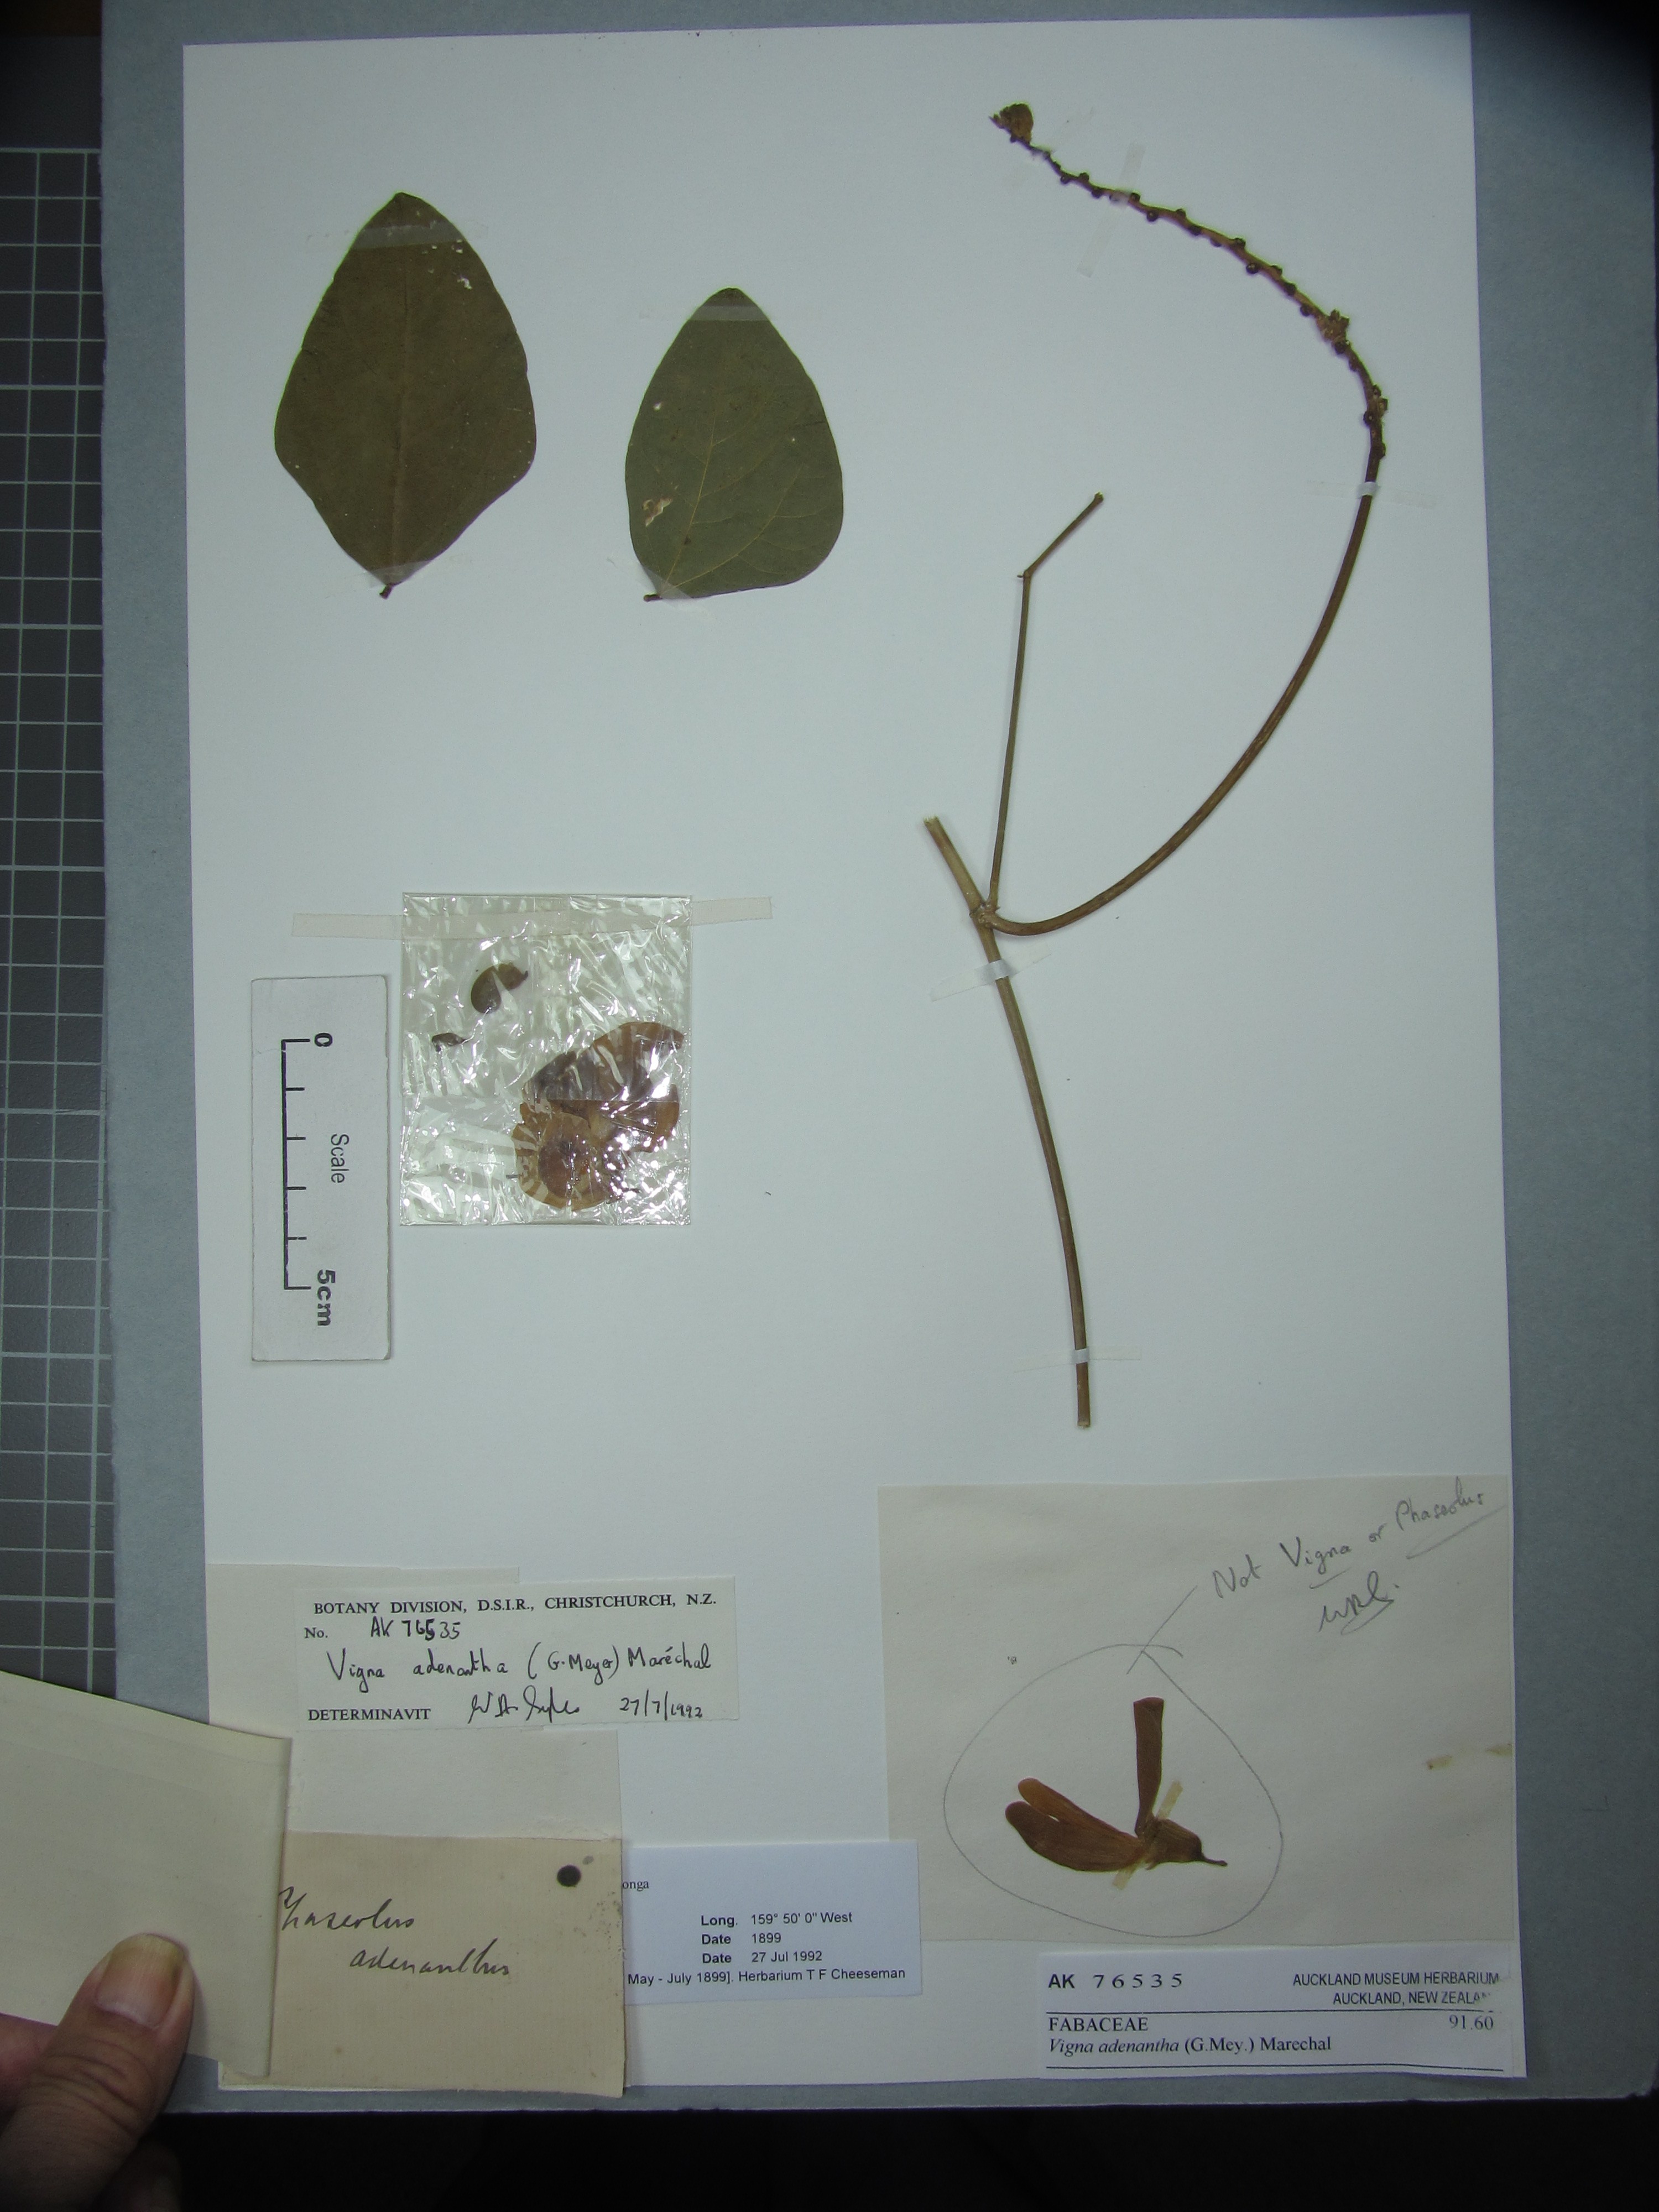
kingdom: Plantae
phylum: Tracheophyta
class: Magnoliopsida
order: Fabales
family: Fabaceae
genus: Leptospron
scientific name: Leptospron adenanthum
